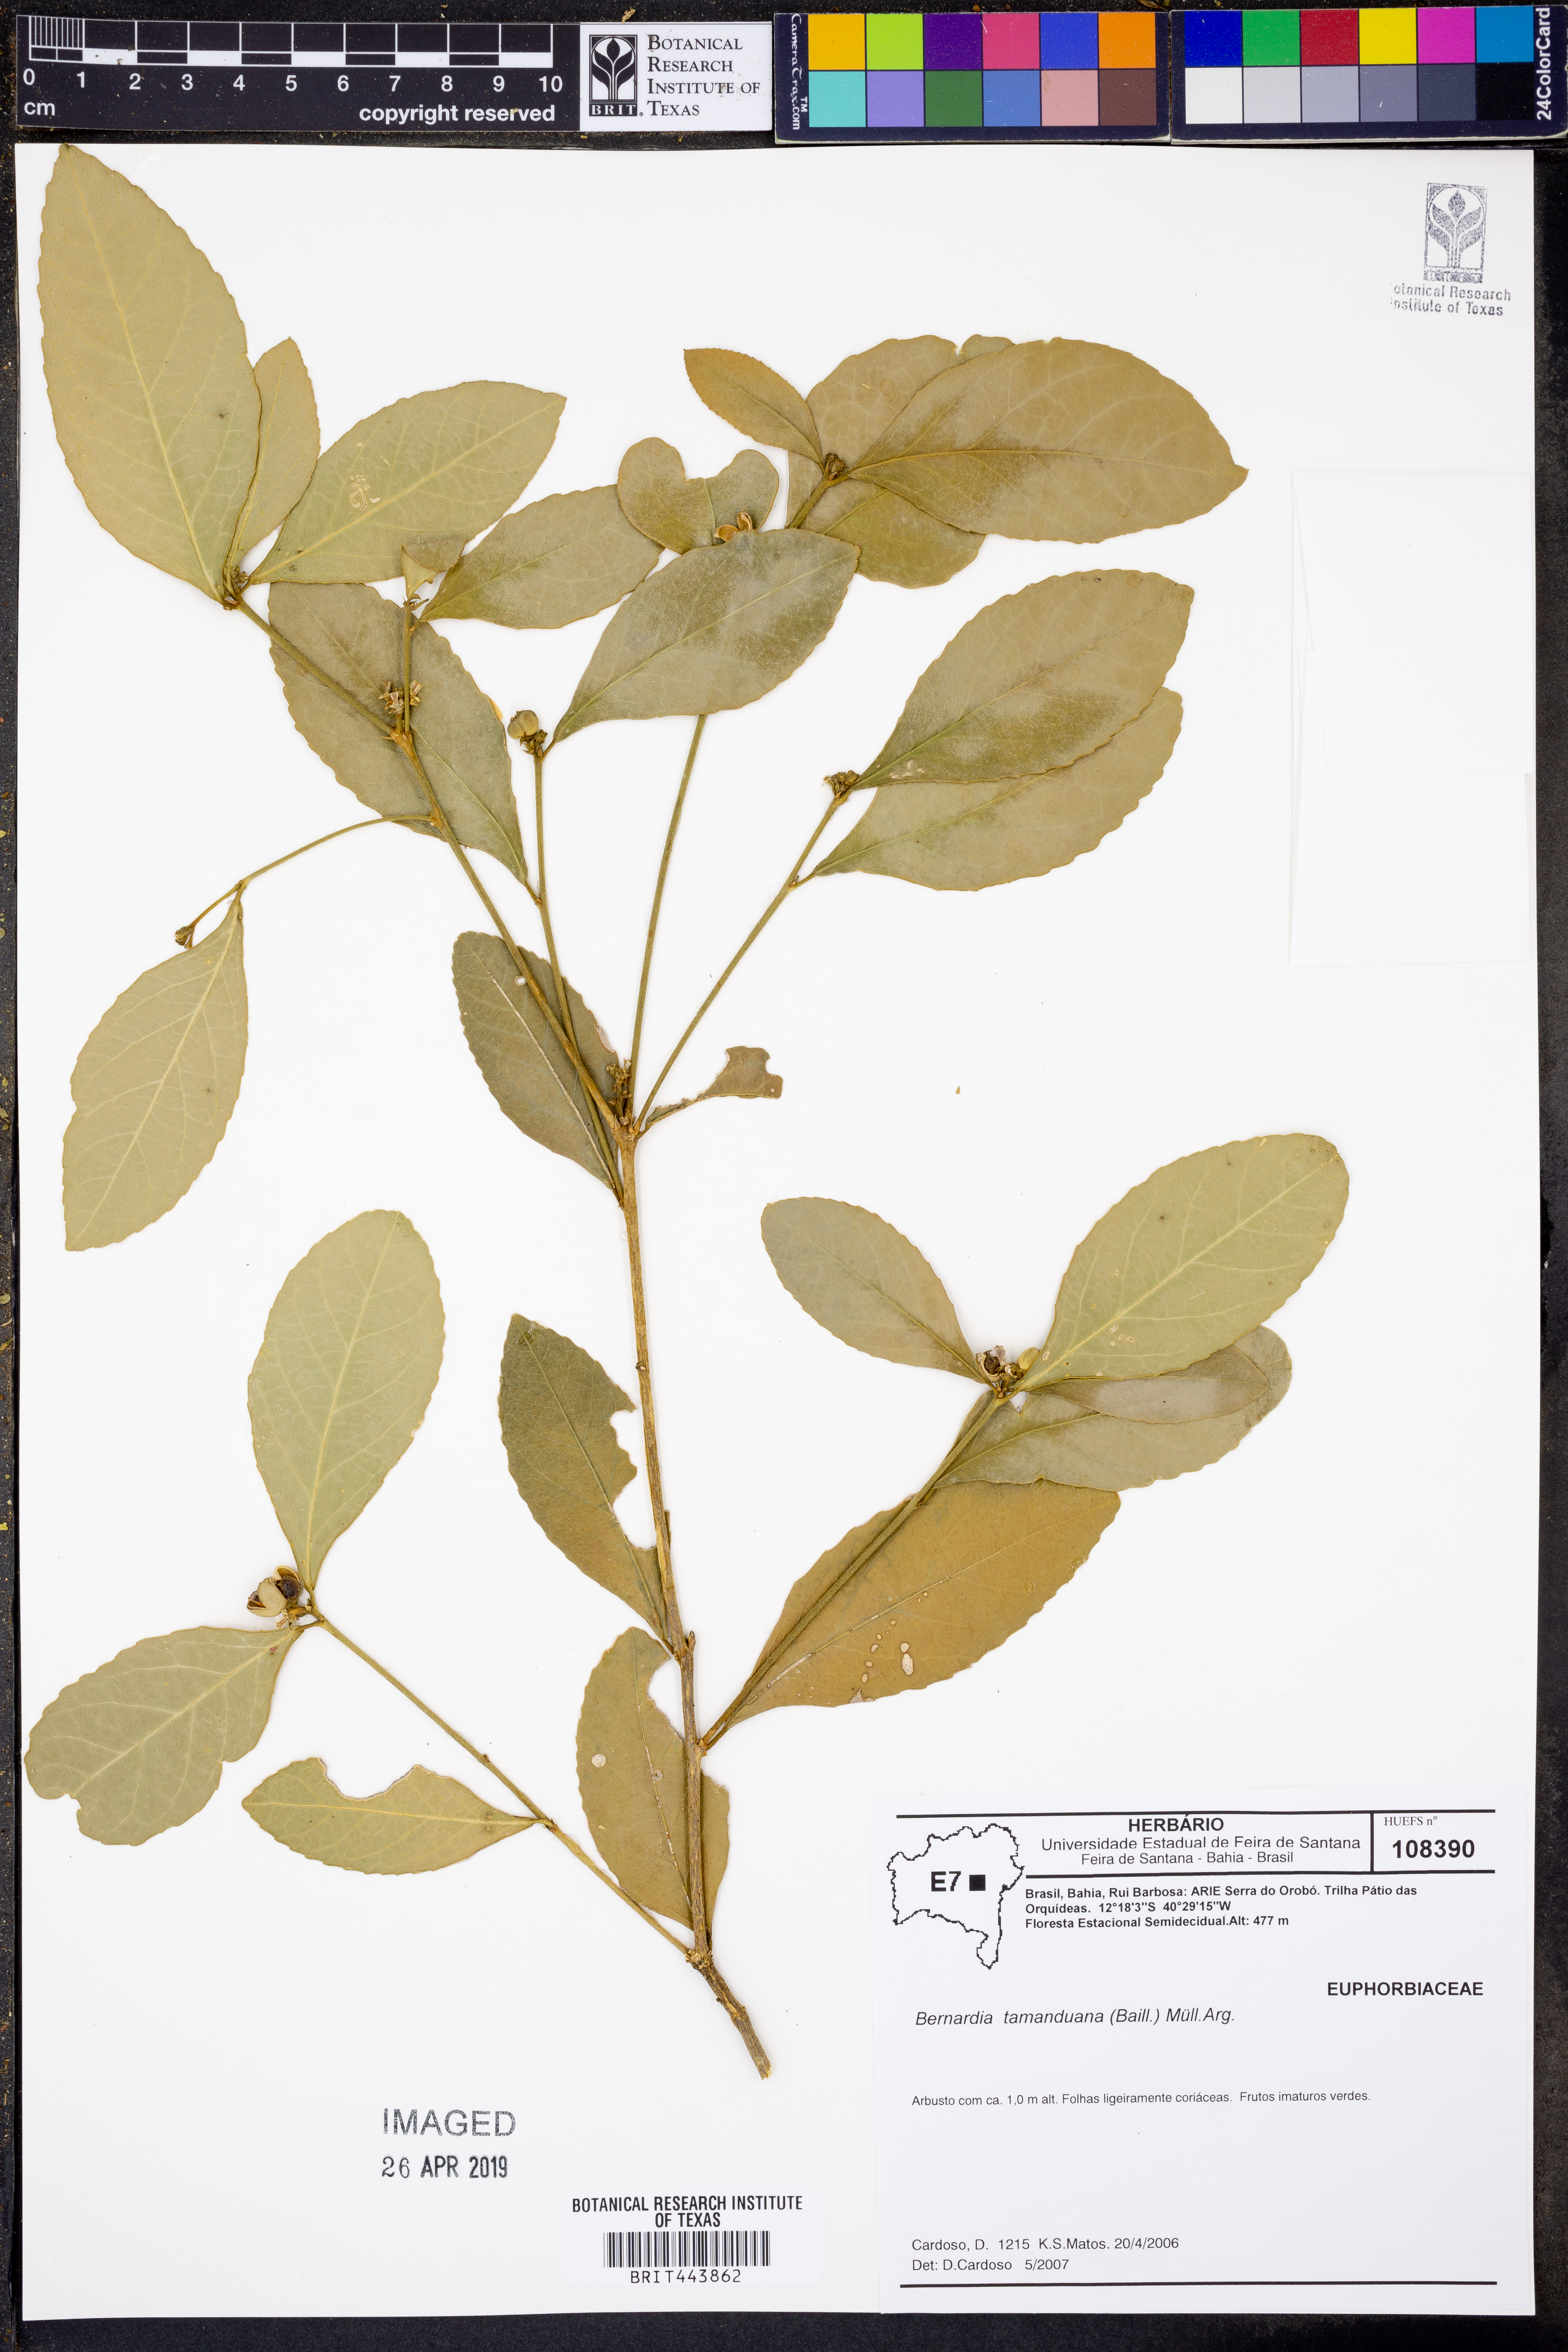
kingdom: Plantae
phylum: Tracheophyta
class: Magnoliopsida
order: Malpighiales
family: Euphorbiaceae
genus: Bernardia
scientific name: Bernardia tamanduana
